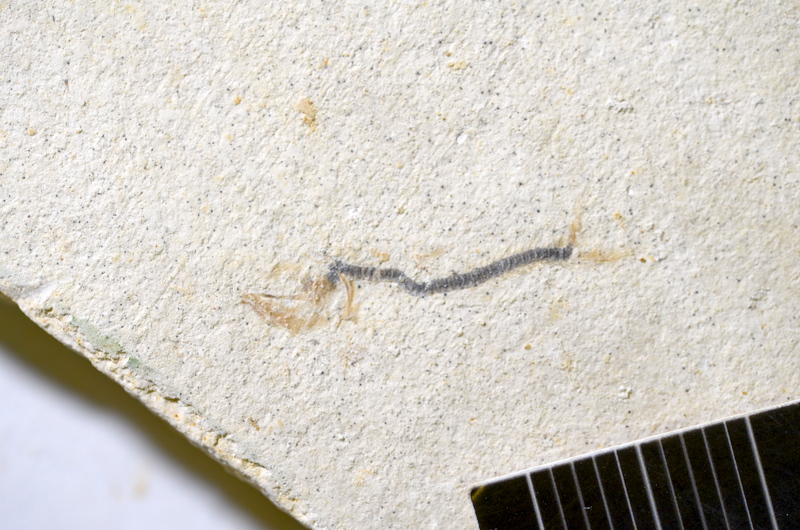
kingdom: Animalia
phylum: Chordata
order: Salmoniformes
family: Orthogonikleithridae
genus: Orthogonikleithrus
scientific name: Orthogonikleithrus hoelli
